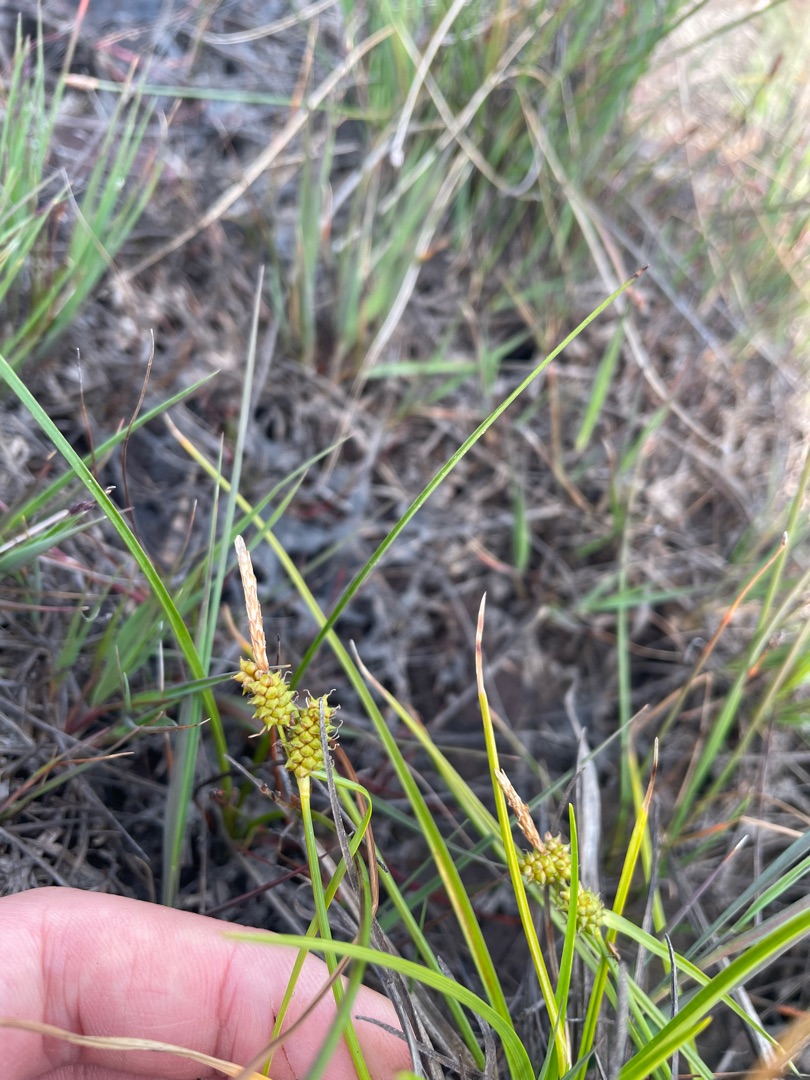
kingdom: Plantae
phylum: Tracheophyta
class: Liliopsida
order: Poales
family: Cyperaceae
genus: Carex
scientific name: Carex oederi
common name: Dværg-star
